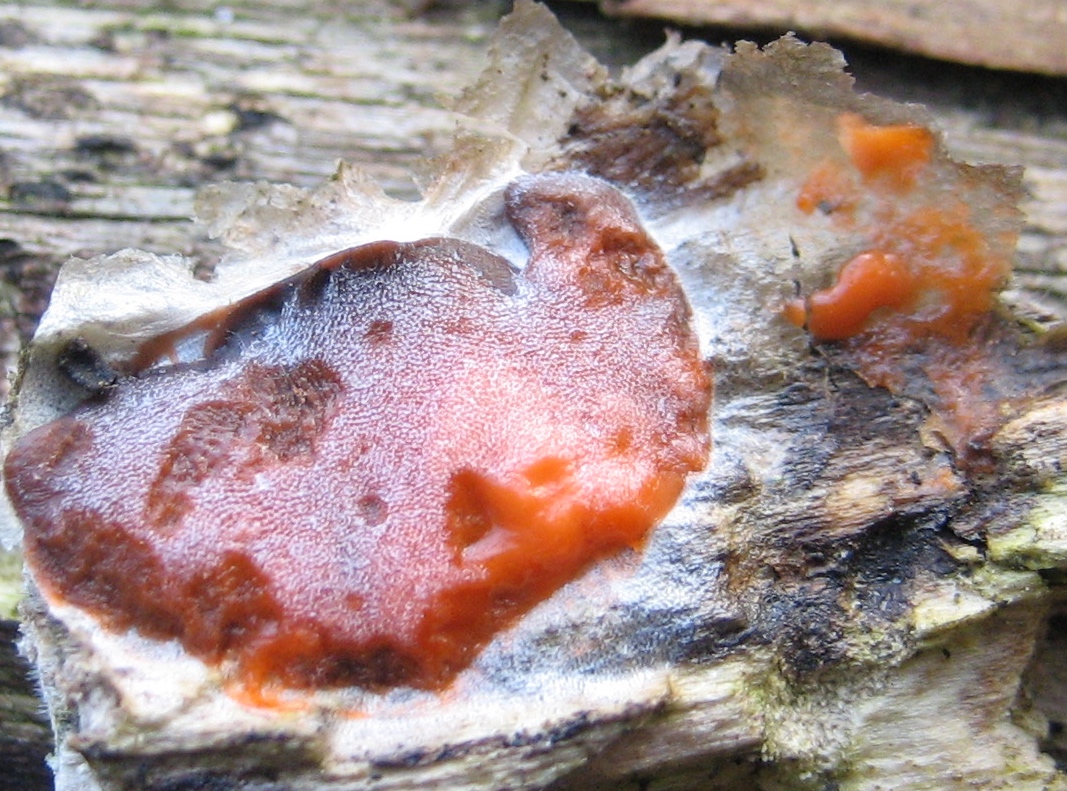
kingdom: Protozoa
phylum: Mycetozoa
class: Myxomycetes
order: Trichiales
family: Dictydiaethaliaceae
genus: Dictydiaethalium
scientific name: Dictydiaethalium plumbeum
